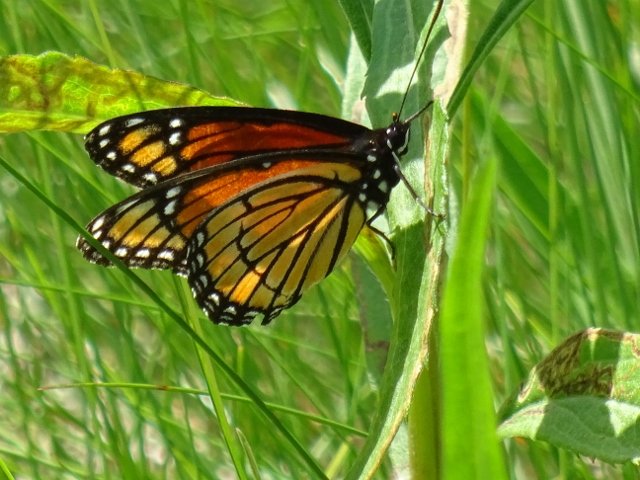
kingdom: Animalia
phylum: Arthropoda
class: Insecta
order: Lepidoptera
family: Nymphalidae
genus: Limenitis
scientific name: Limenitis archippus
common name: Viceroy
